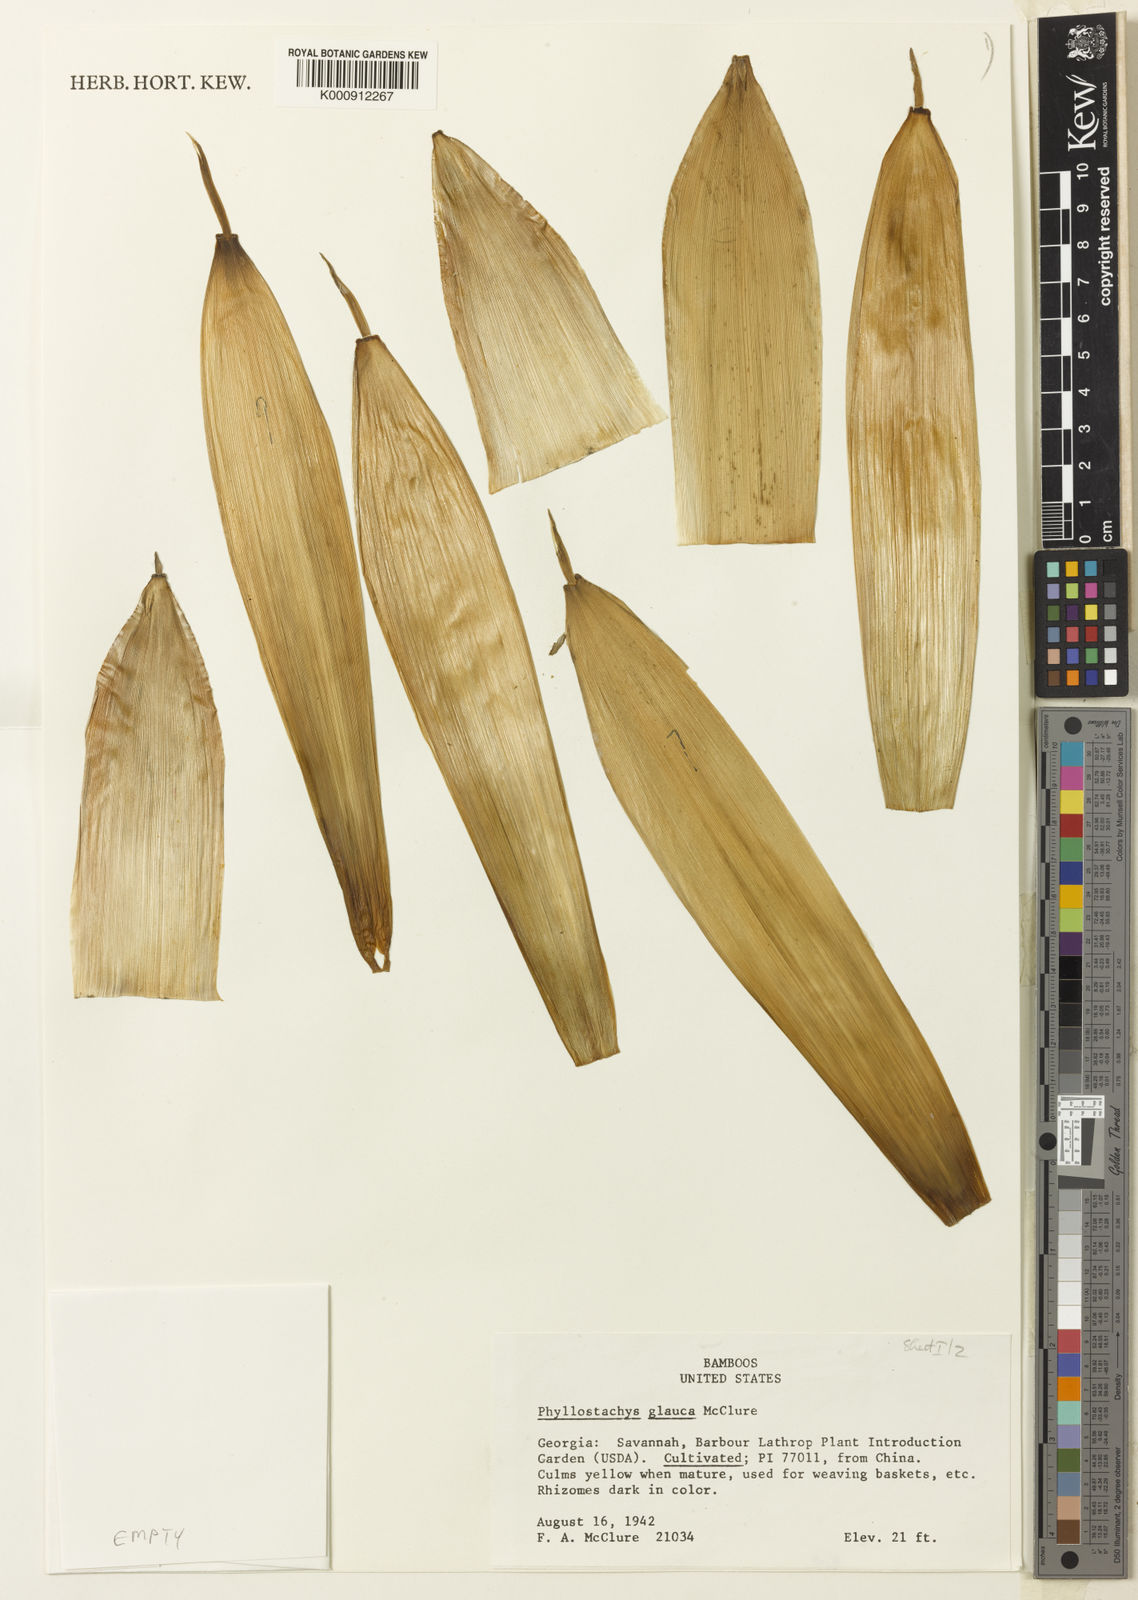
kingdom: Plantae
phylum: Tracheophyta
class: Liliopsida
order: Poales
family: Poaceae
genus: Phyllostachys
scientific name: Phyllostachys glauca
